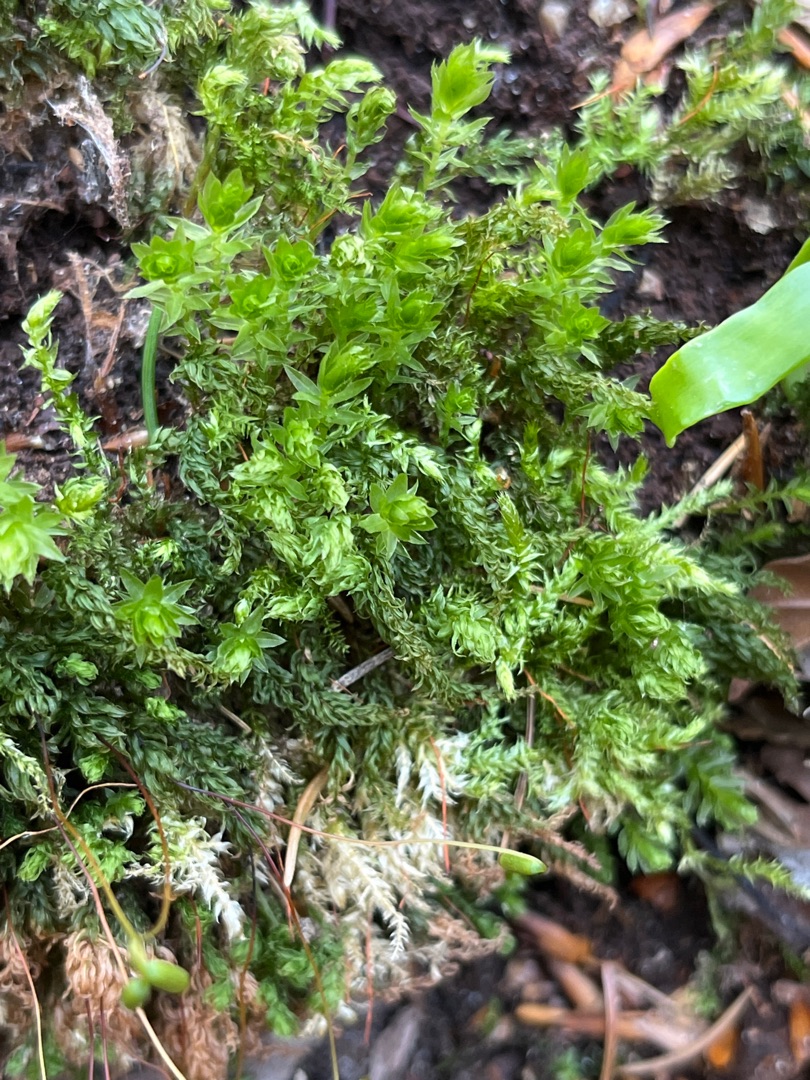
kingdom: Plantae
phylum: Bryophyta
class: Bryopsida
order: Bryales
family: Mniaceae
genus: Mnium
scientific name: Mnium hornum
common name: Brunfiltet stjernemos
